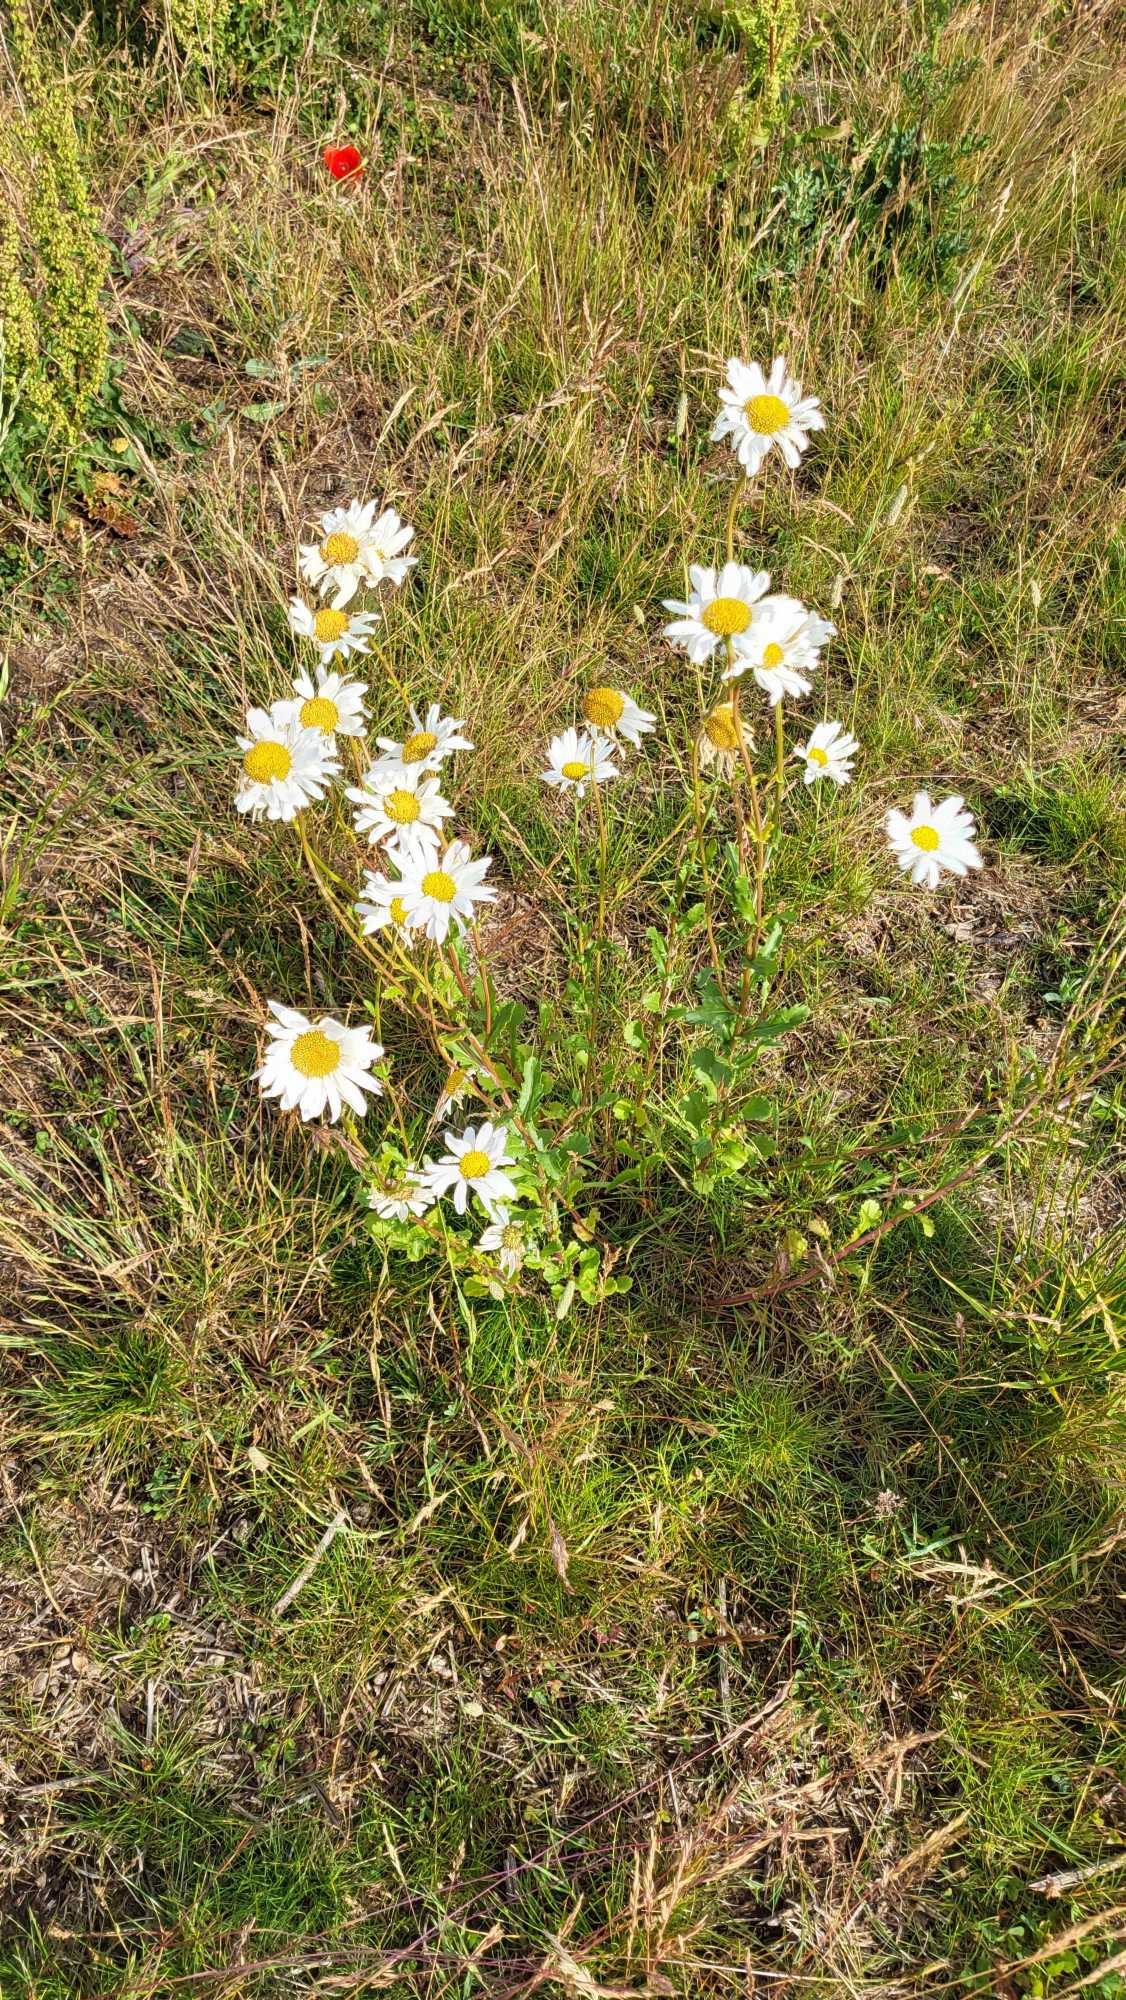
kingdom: Plantae
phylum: Tracheophyta
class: Magnoliopsida
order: Asterales
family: Asteraceae
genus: Leucanthemum
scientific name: Leucanthemum vulgare
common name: Hvid okseøje
